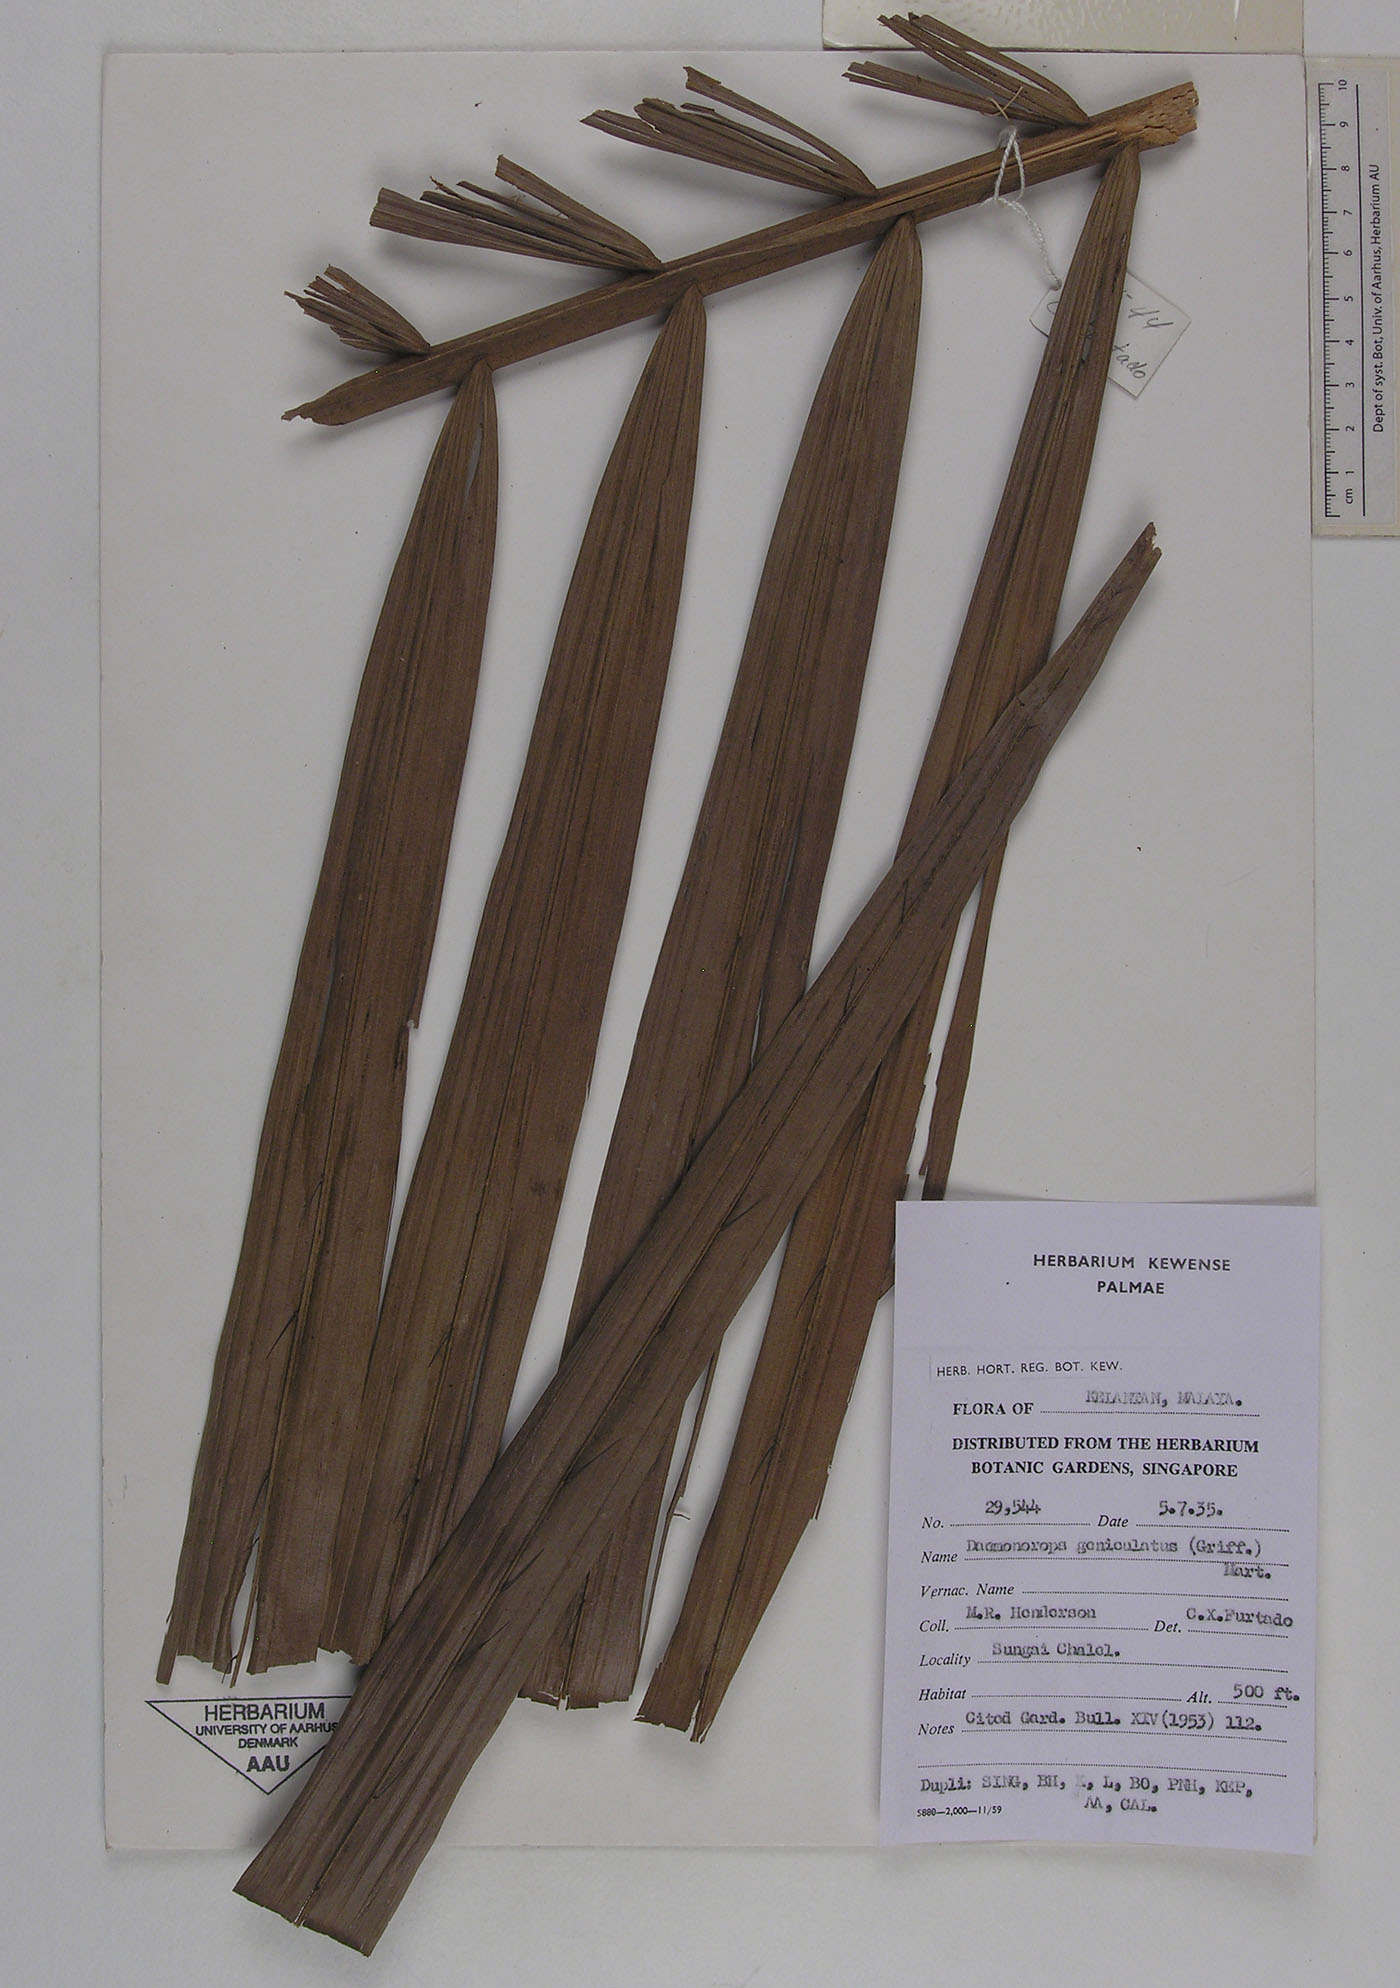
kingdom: Plantae
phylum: Tracheophyta
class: Liliopsida
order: Arecales
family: Arecaceae
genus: Calamus
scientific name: Calamus geniculatus
